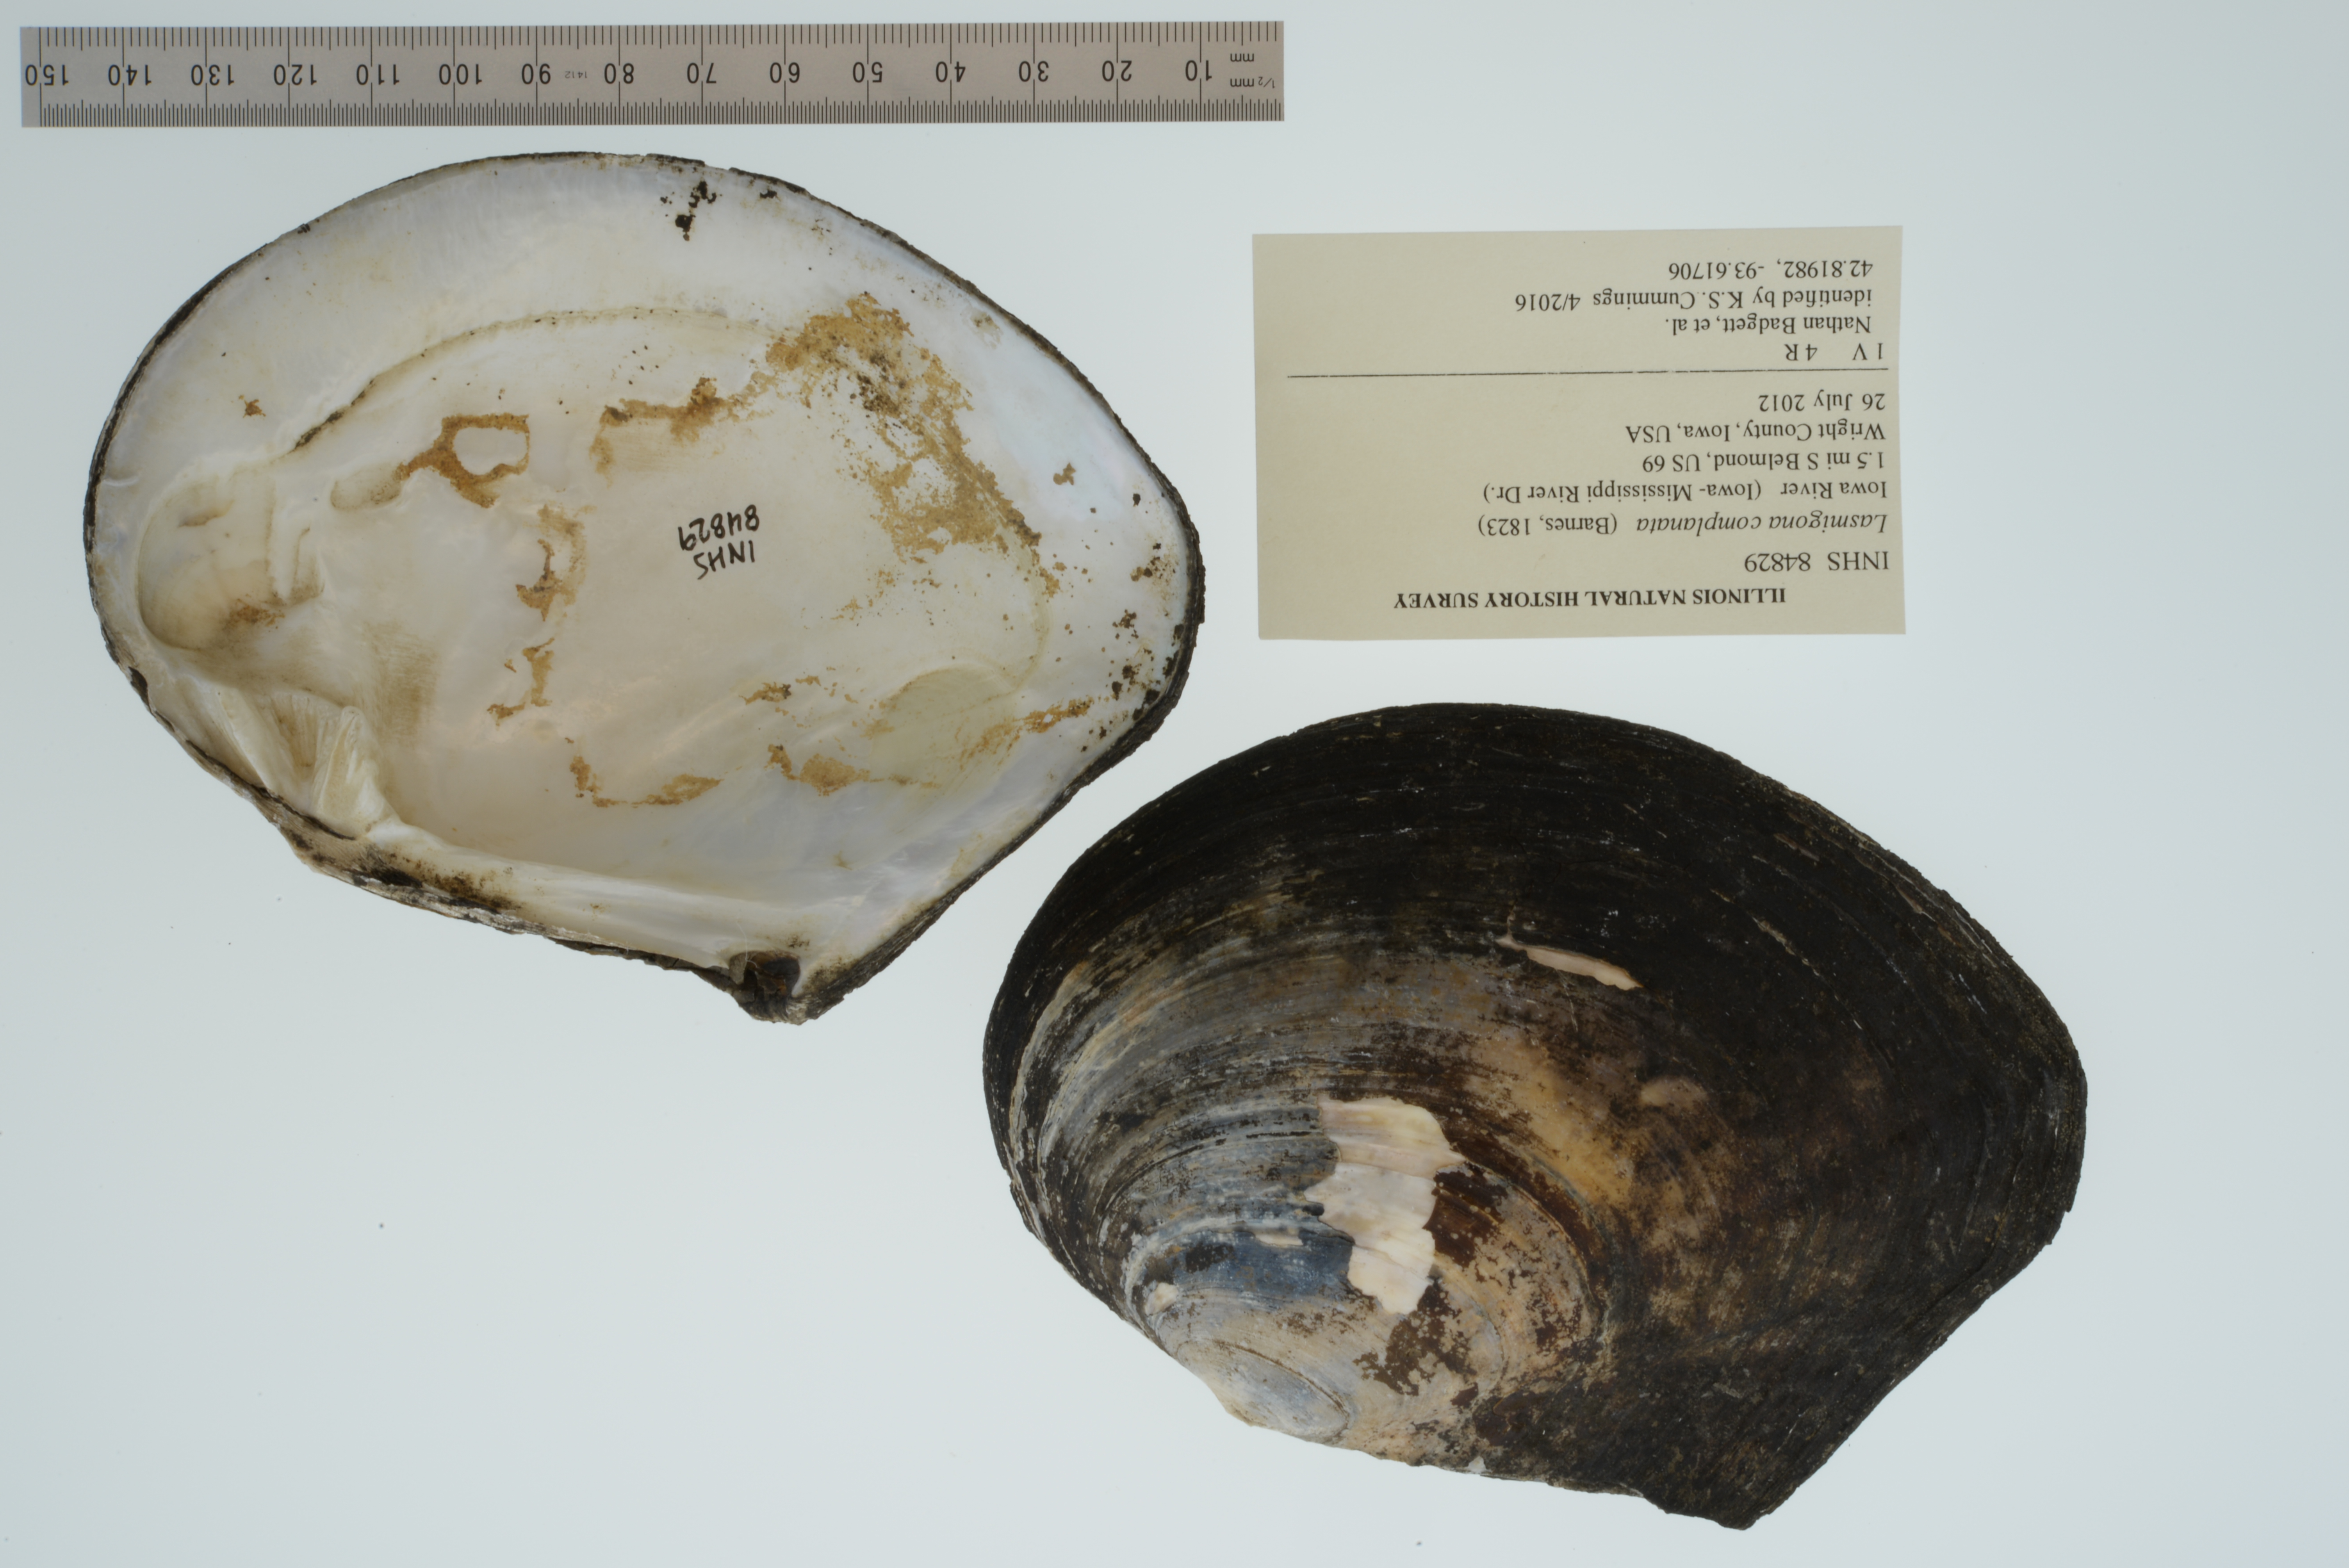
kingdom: Animalia
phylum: Mollusca
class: Bivalvia
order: Unionida
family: Unionidae
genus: Lasmigona
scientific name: Lasmigona complanata
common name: White heelsplitter
